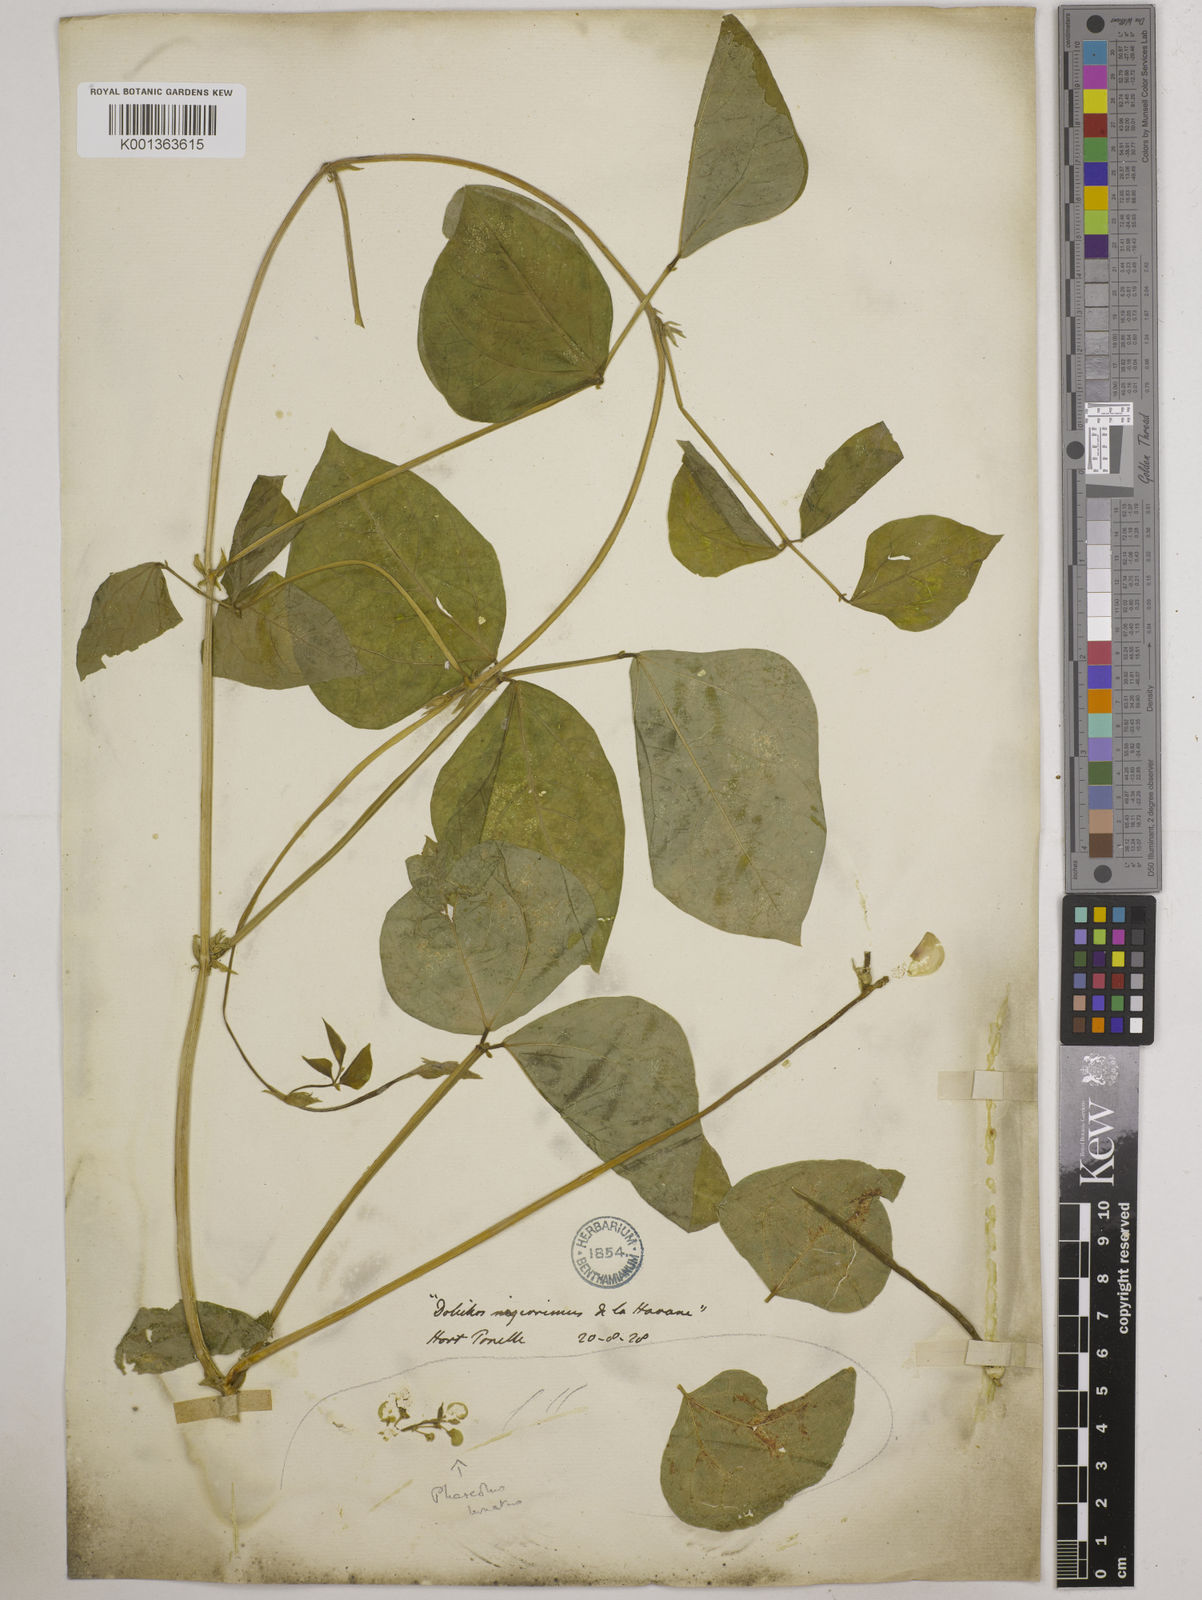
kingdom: Plantae
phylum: Tracheophyta
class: Magnoliopsida
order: Fabales
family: Fabaceae
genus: Vigna
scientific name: Vigna unguiculata
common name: Cowpea
